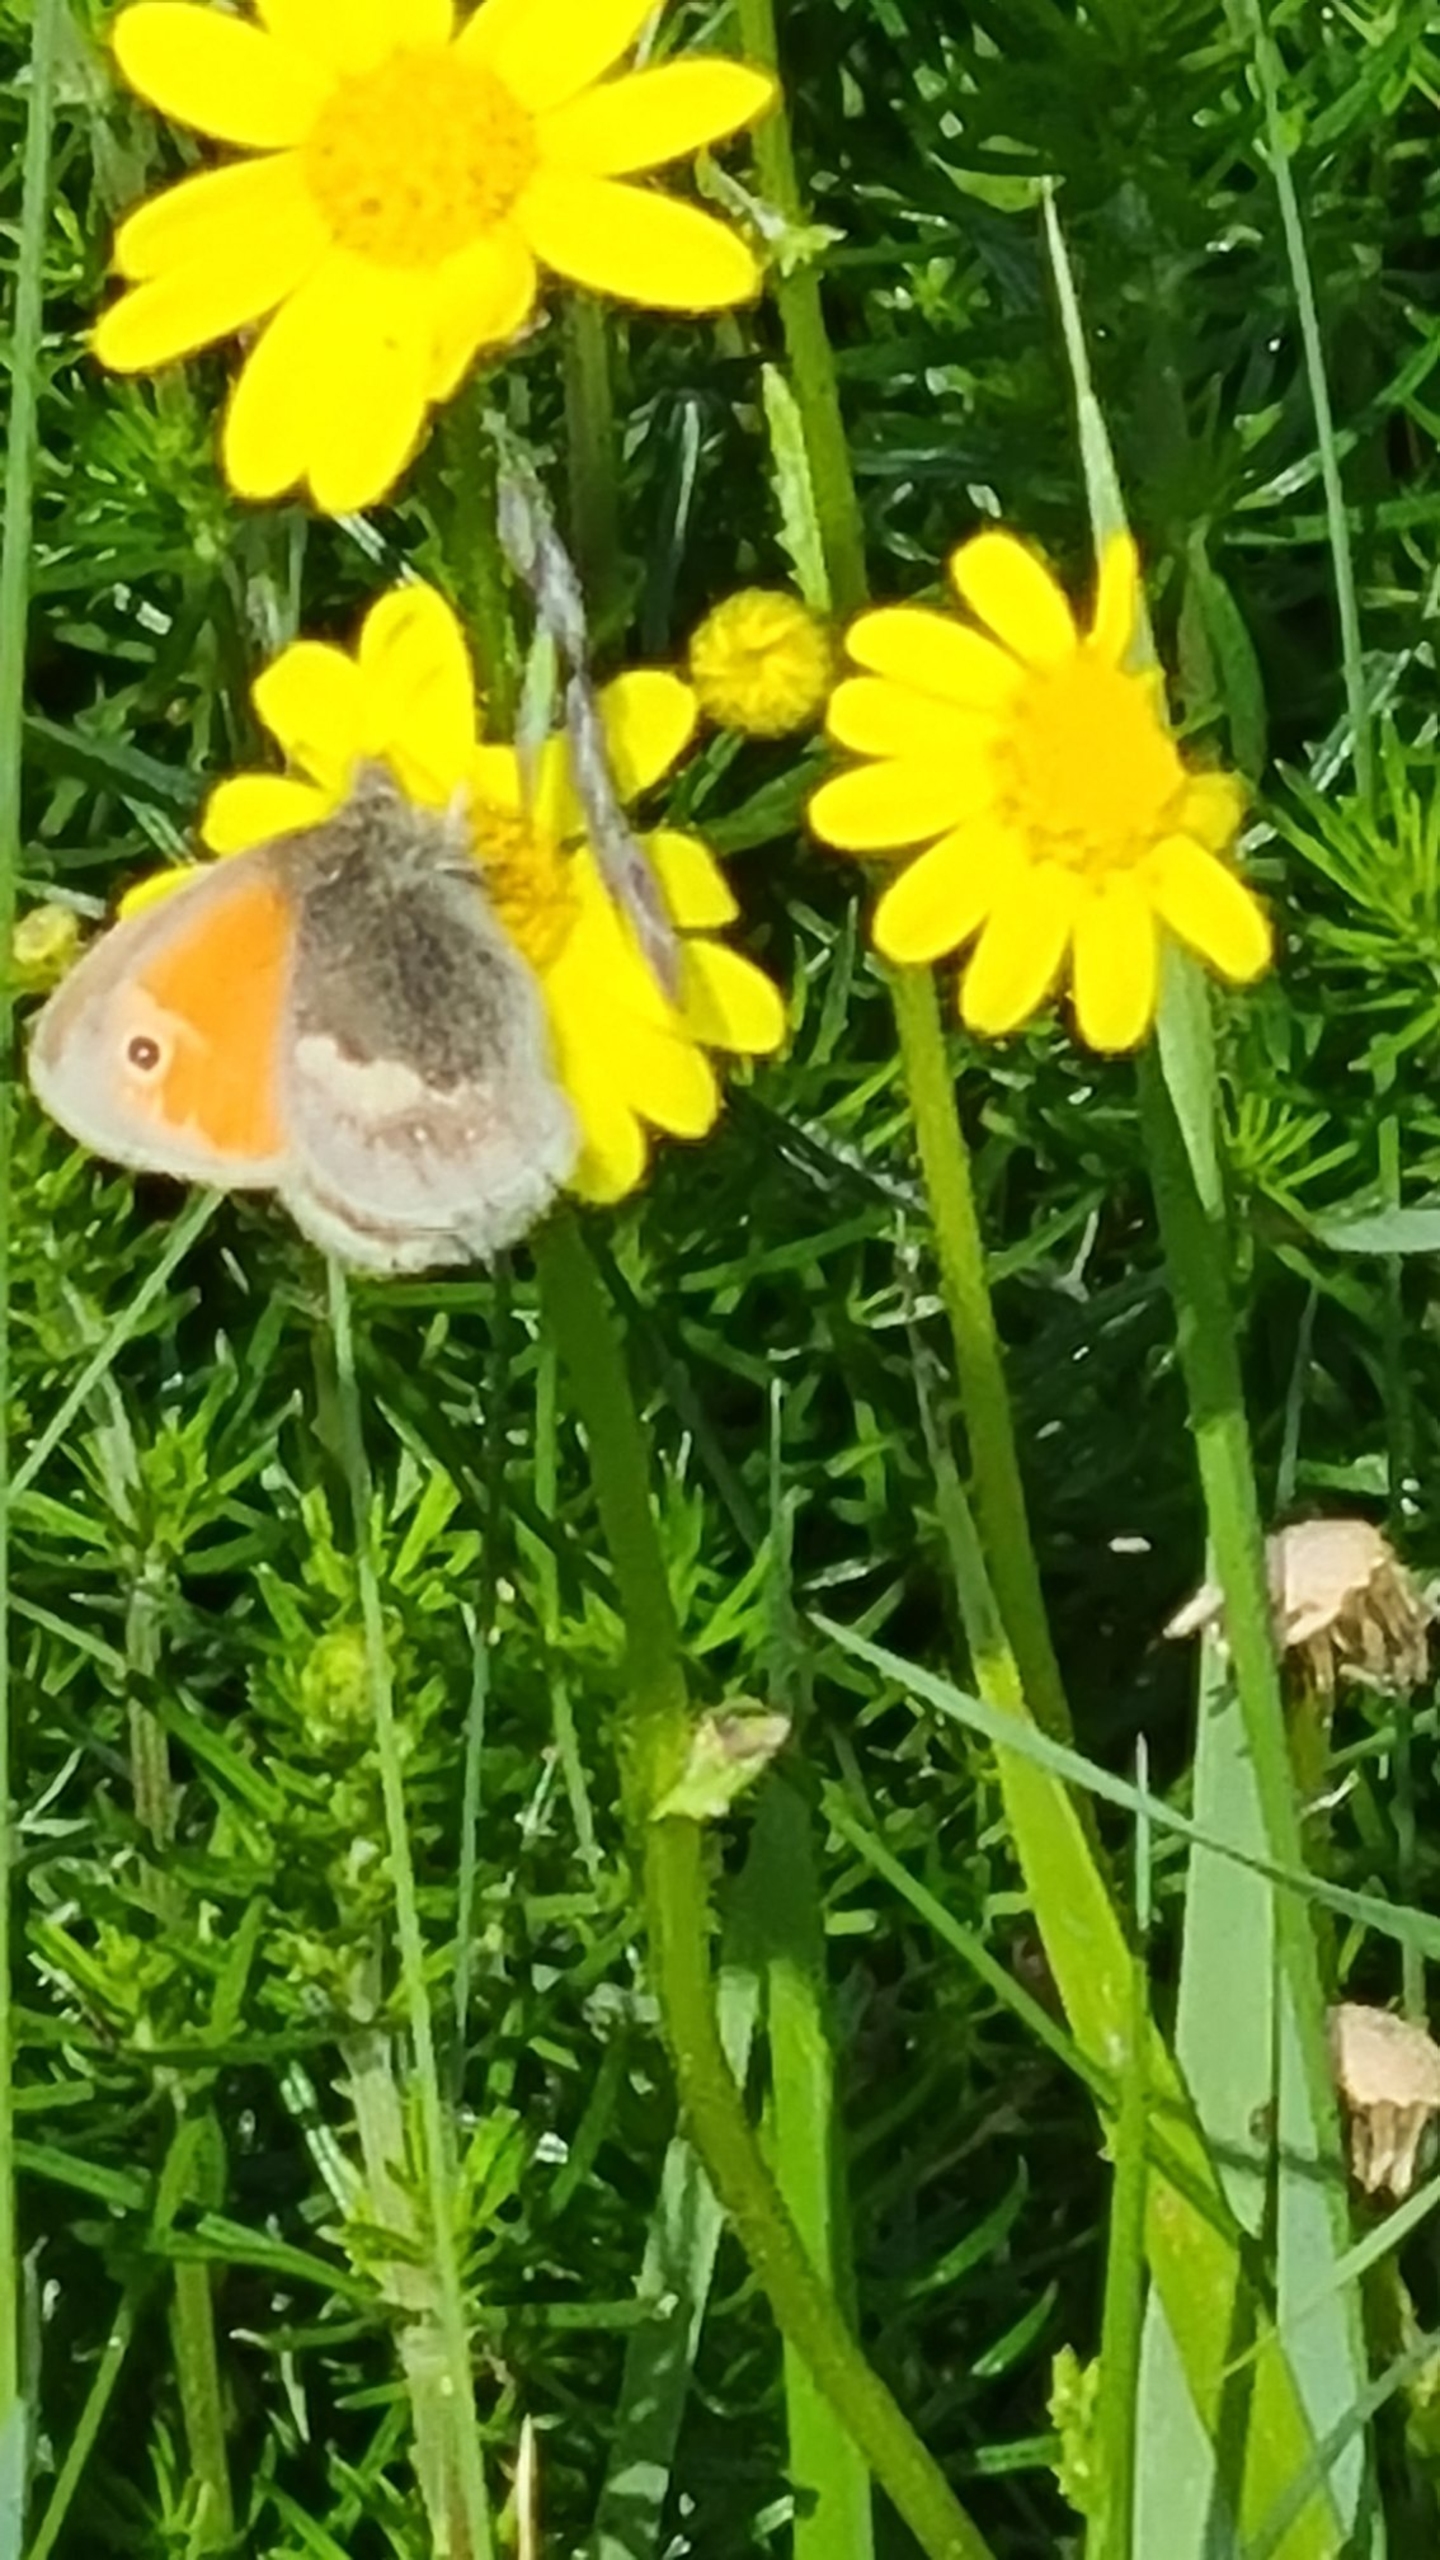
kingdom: Animalia
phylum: Arthropoda
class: Insecta
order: Lepidoptera
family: Nymphalidae
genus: Coenonympha
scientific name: Coenonympha pamphilus
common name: Okkergul randøje
